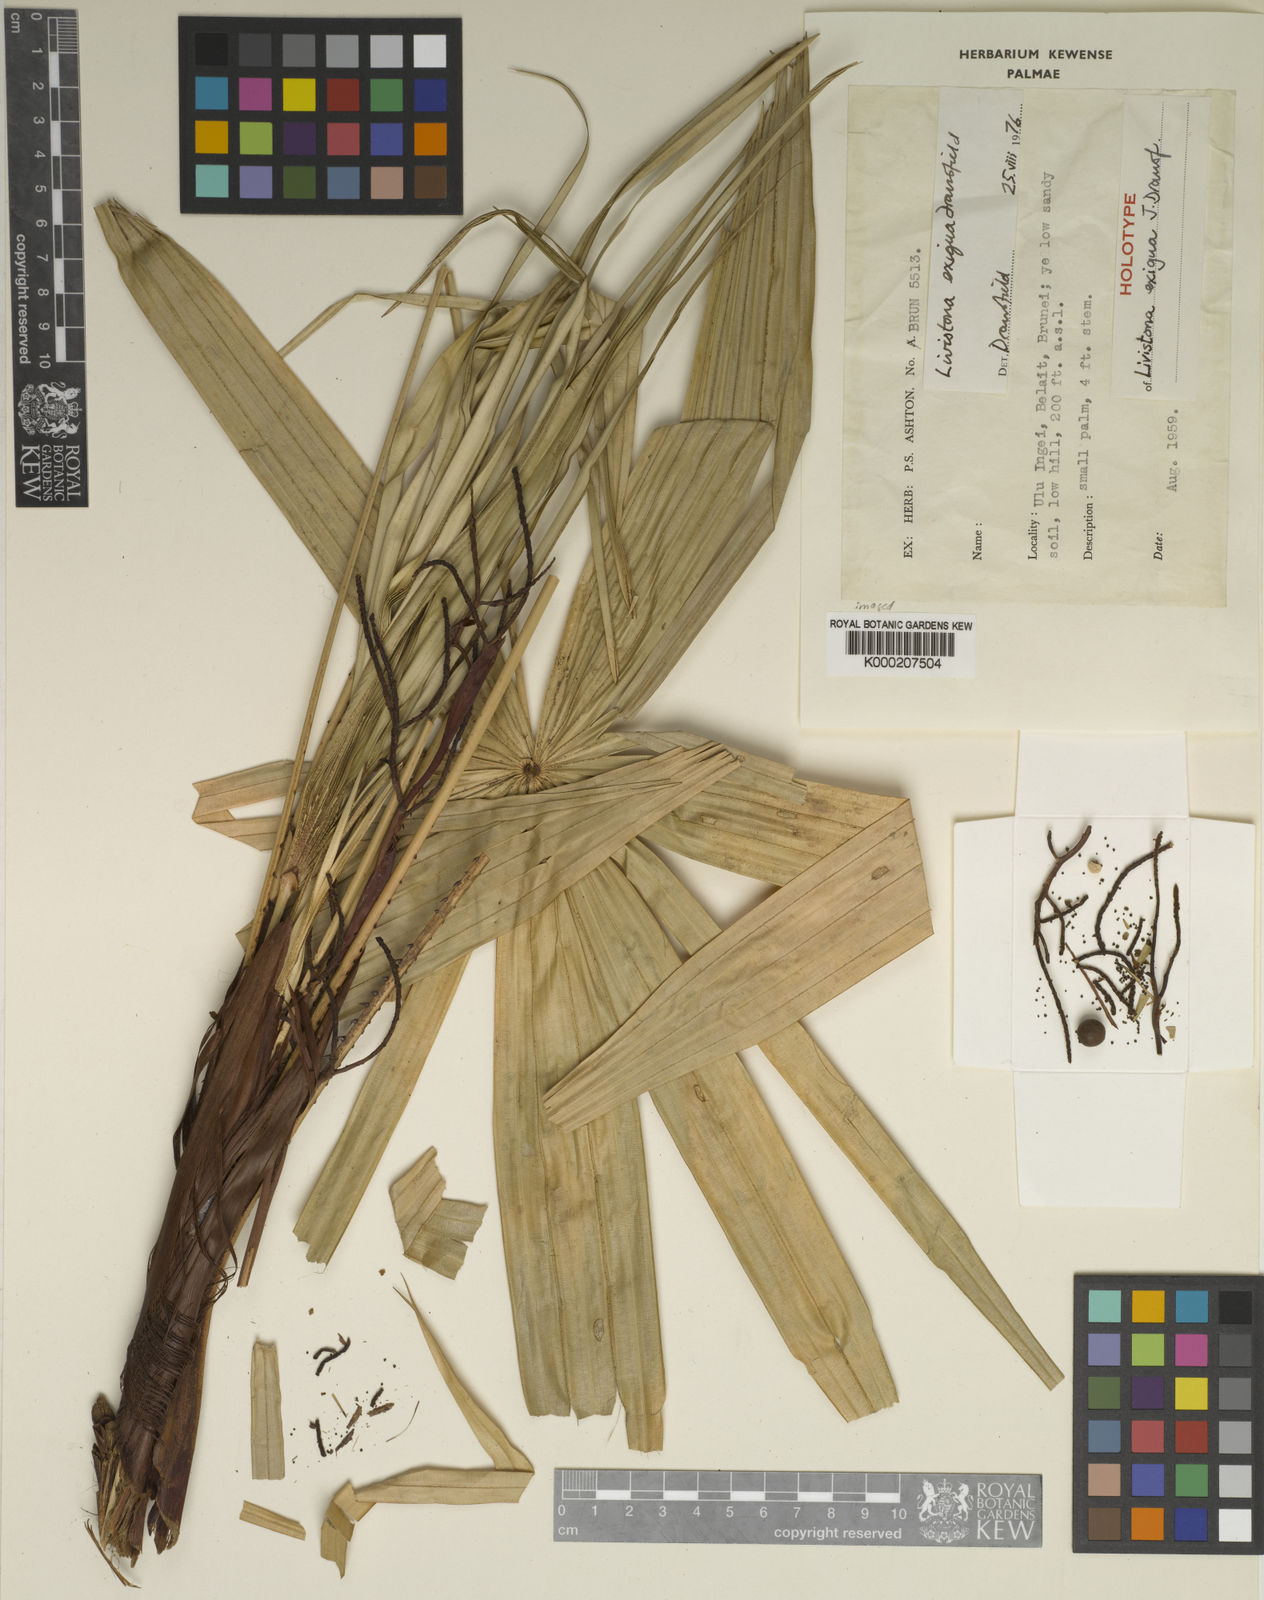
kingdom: Plantae
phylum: Tracheophyta
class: Liliopsida
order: Arecales
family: Arecaceae
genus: Livistona
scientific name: Livistona exigua
